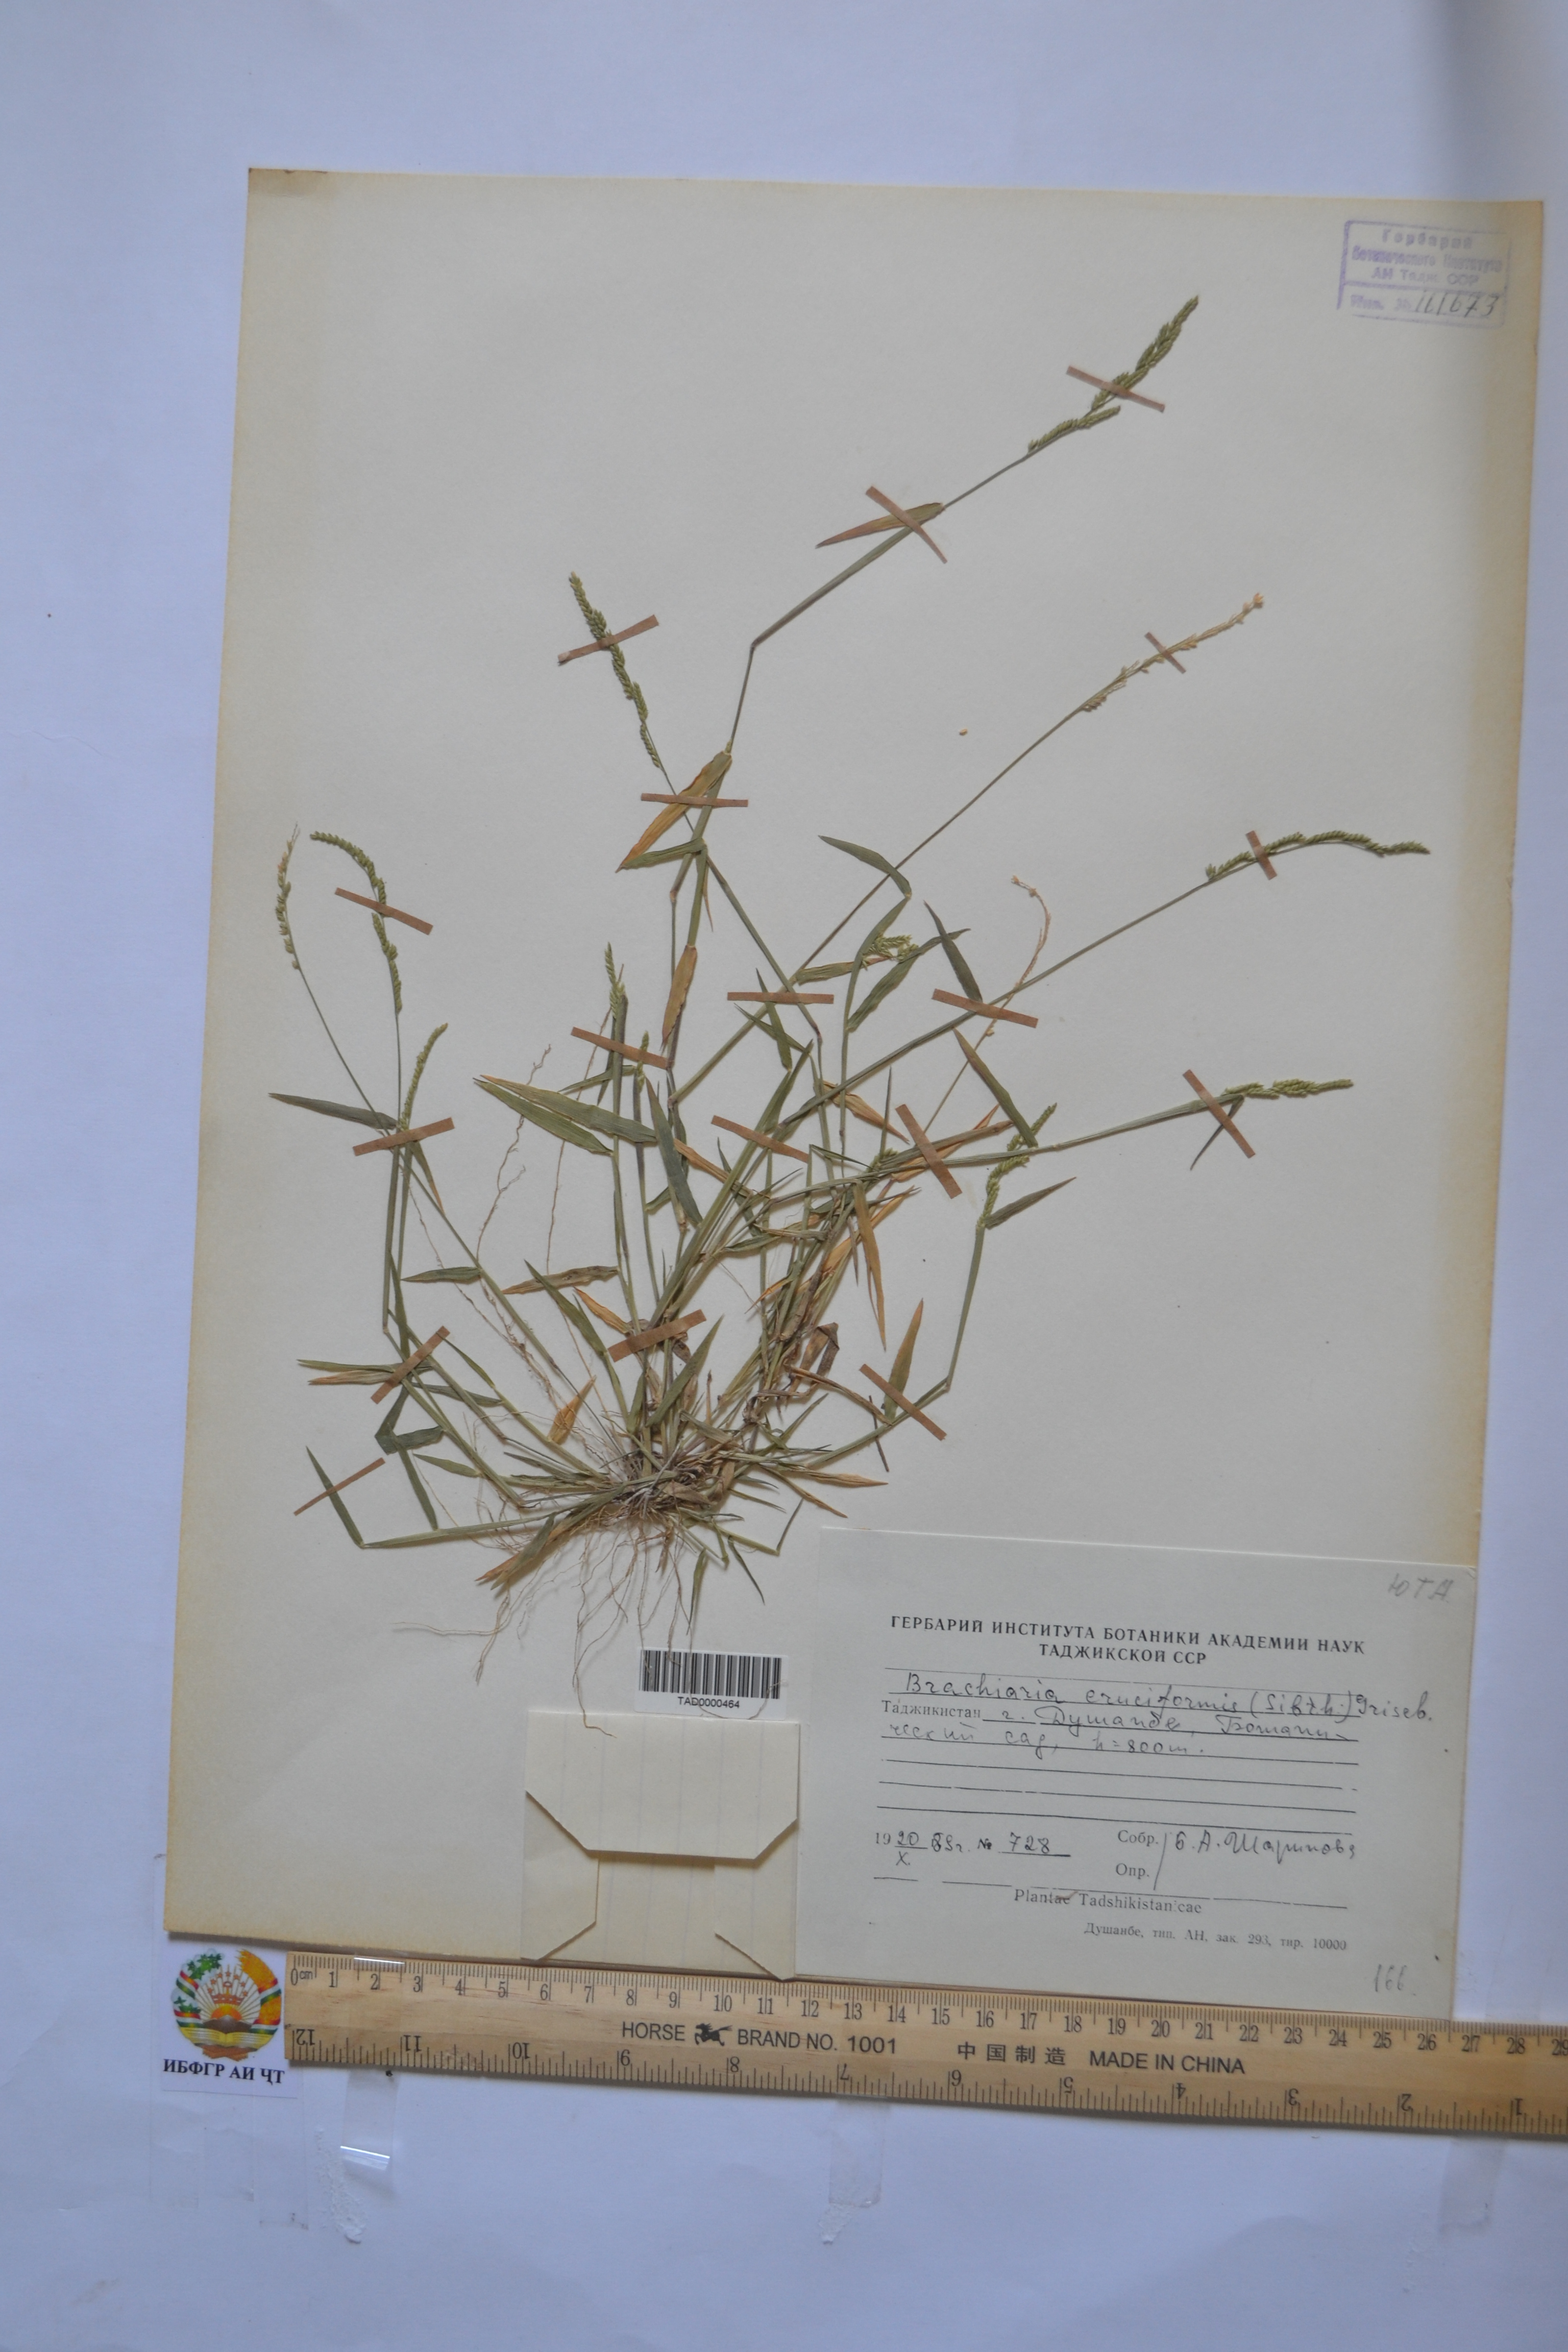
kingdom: Plantae
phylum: Tracheophyta
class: Liliopsida
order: Poales
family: Poaceae
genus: Moorochloa
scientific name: Moorochloa eruciformis
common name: Sweet signalgrass
